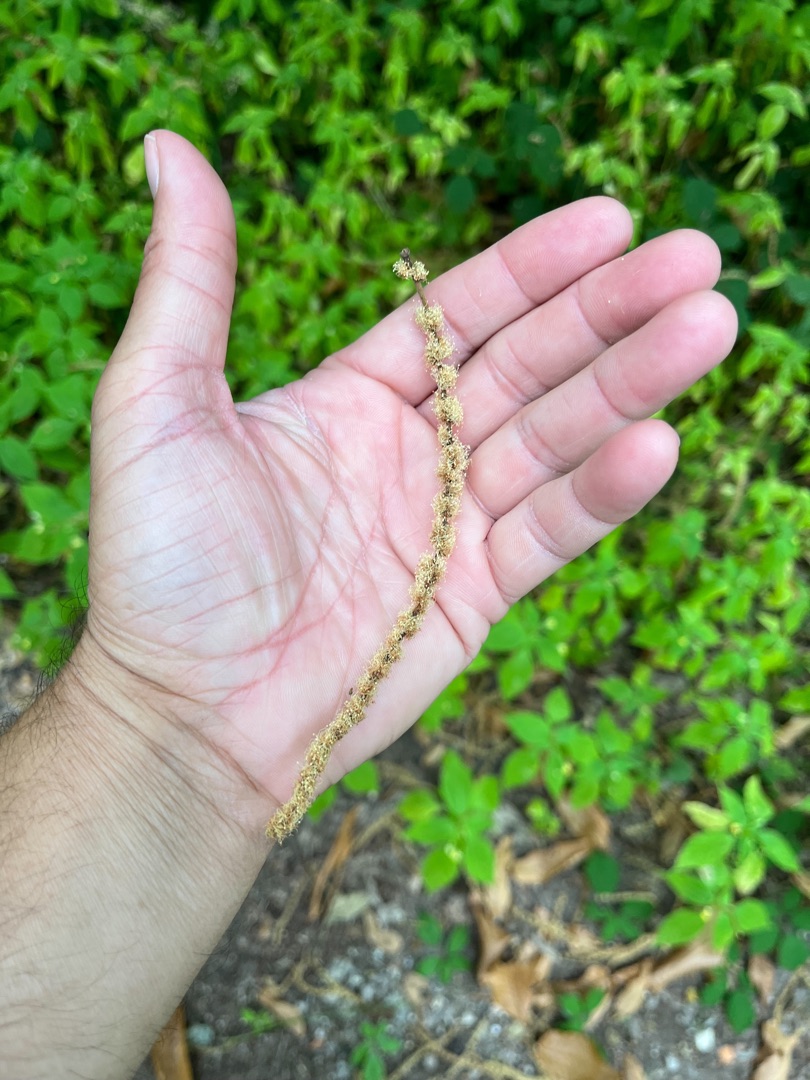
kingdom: Plantae
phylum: Tracheophyta
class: Magnoliopsida
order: Fagales
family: Fagaceae
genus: Castanea
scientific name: Castanea sativa
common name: Ægte kastanie
